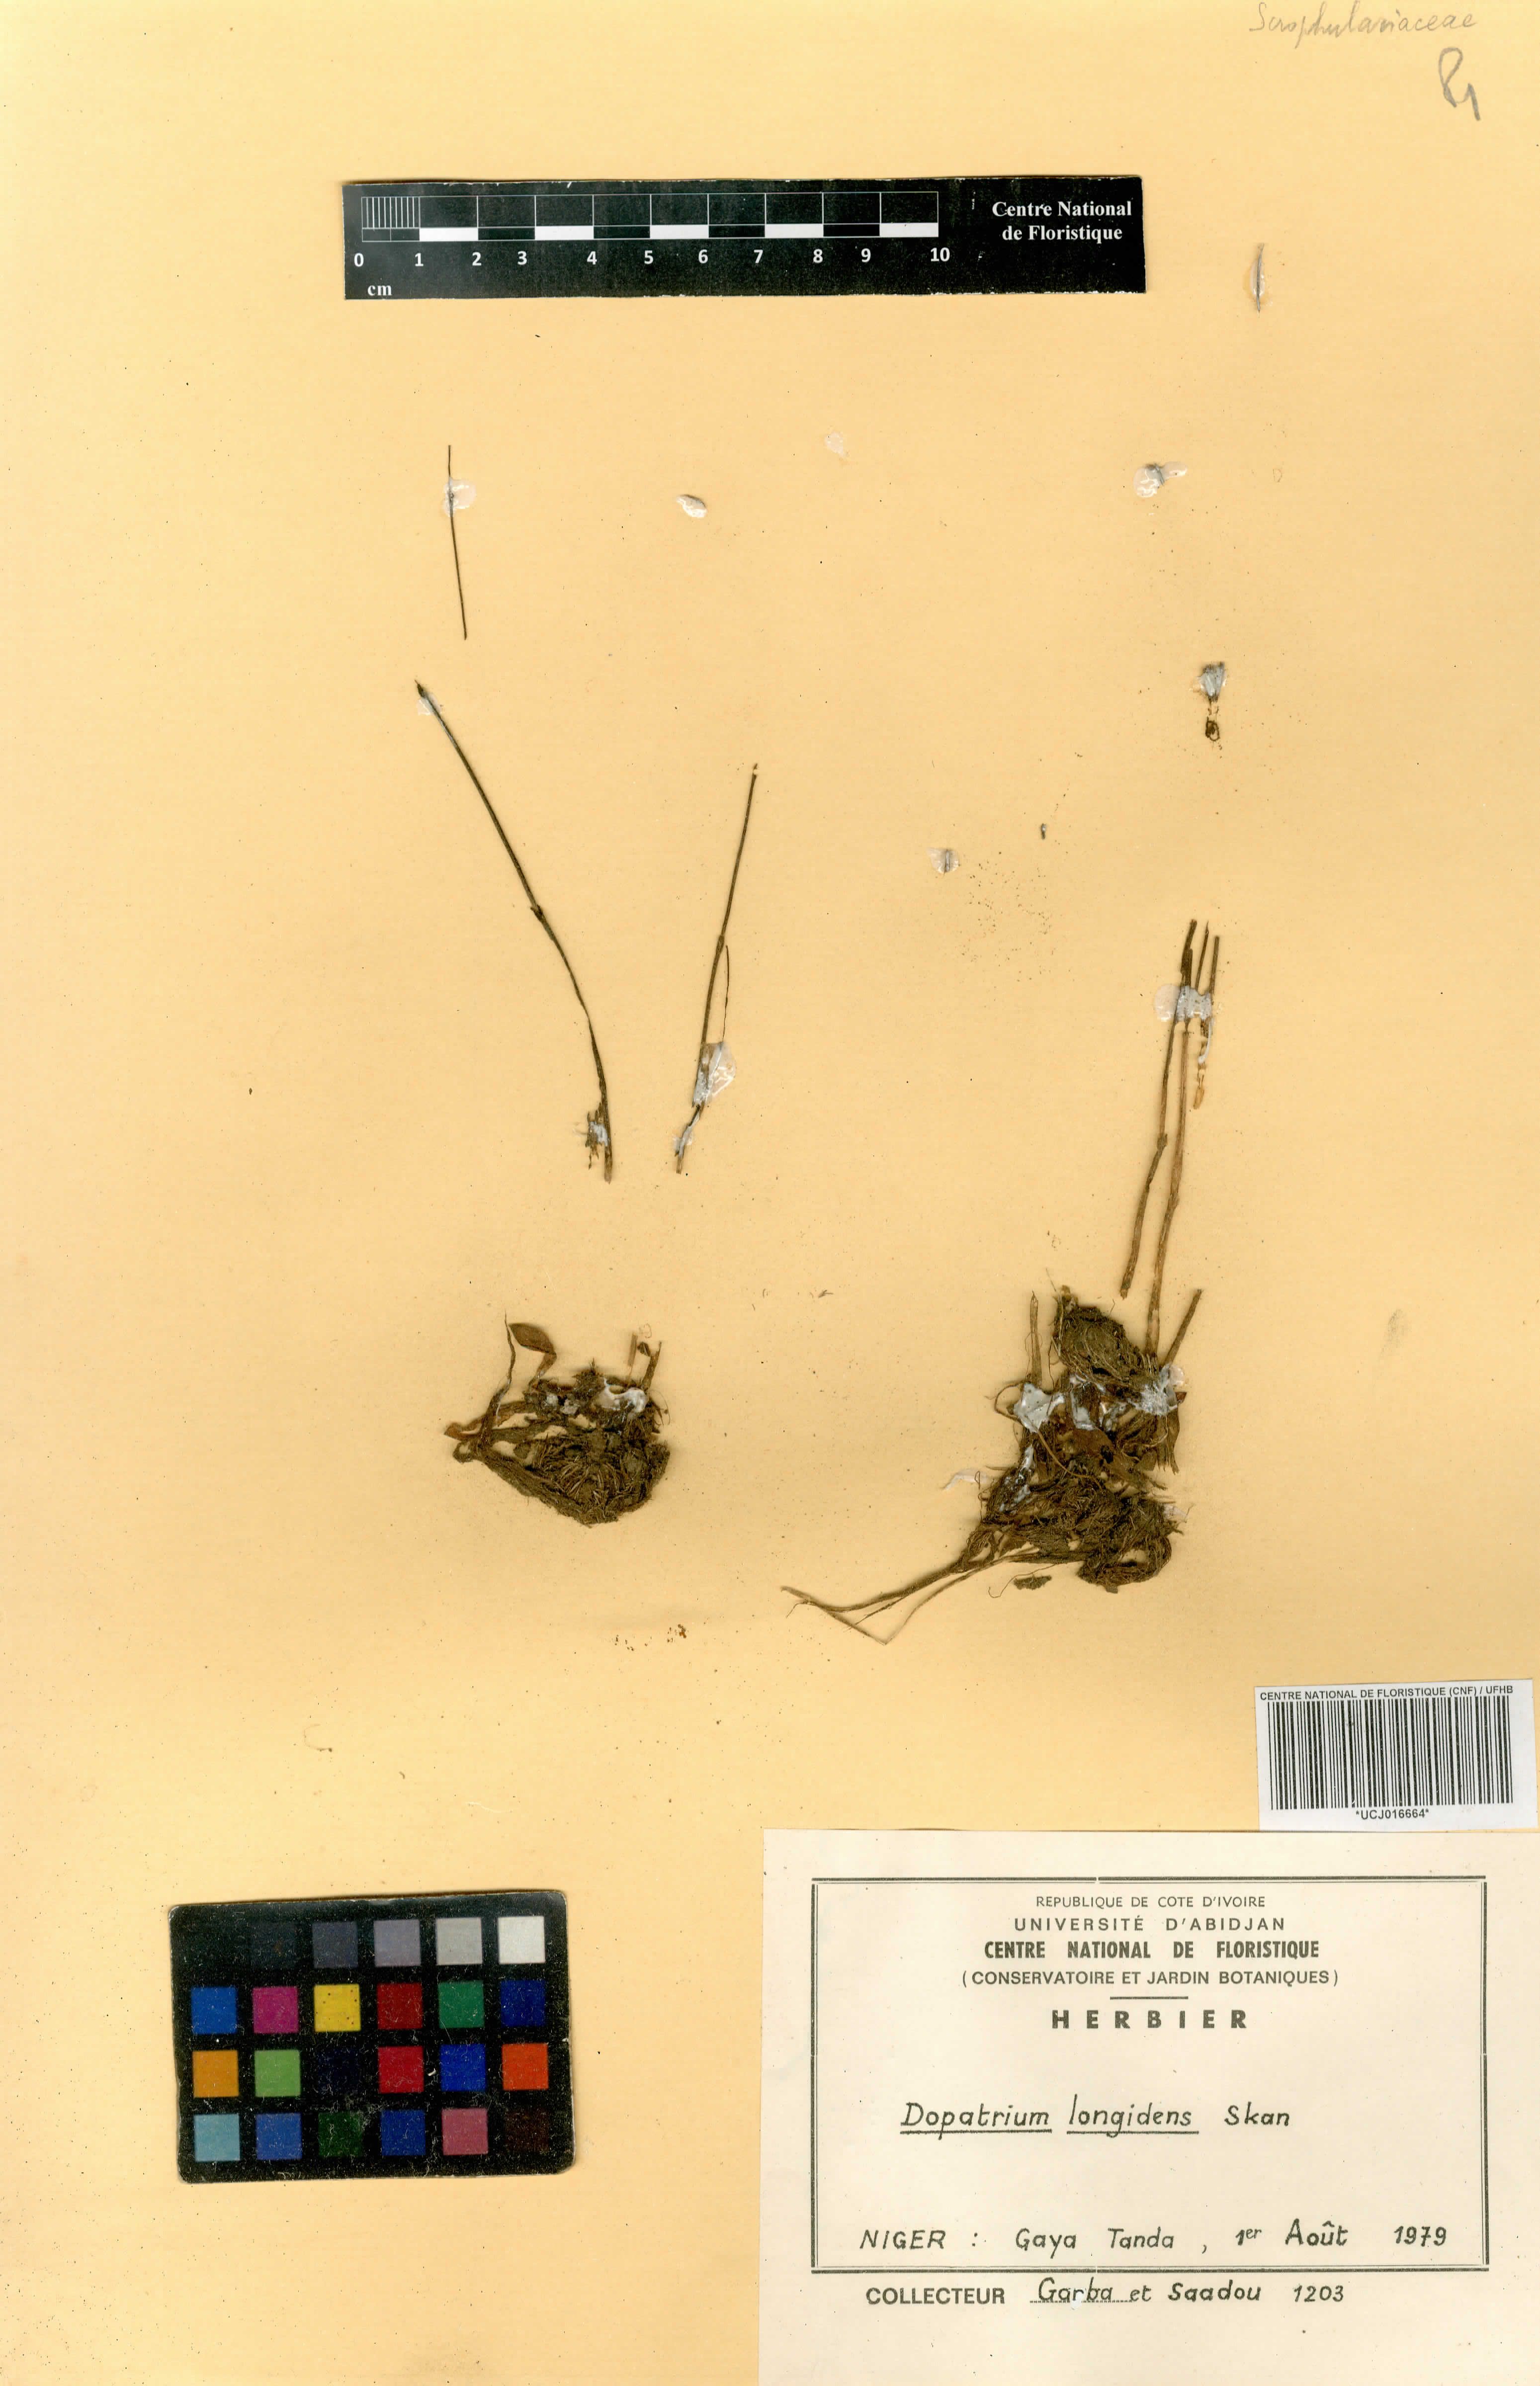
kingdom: Plantae
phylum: Tracheophyta
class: Magnoliopsida
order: Lamiales
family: Plantaginaceae
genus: Dopatrium
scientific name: Dopatrium longidens
